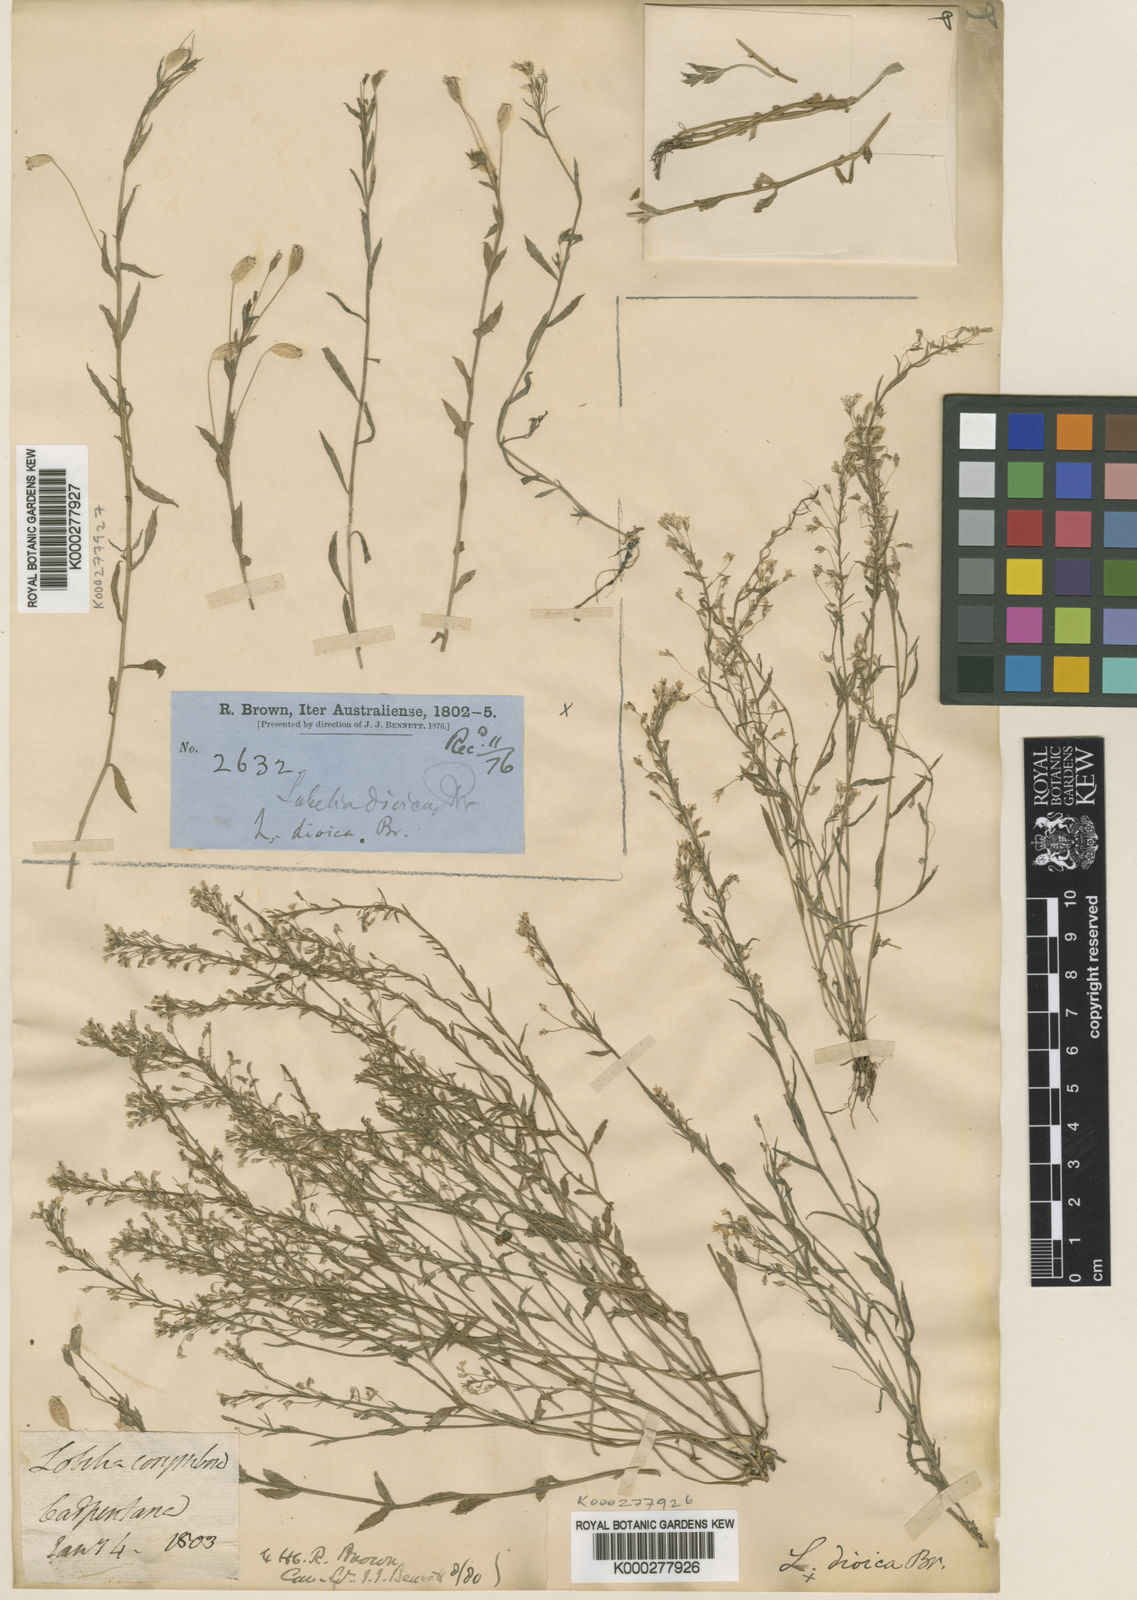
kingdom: Plantae
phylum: Tracheophyta
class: Magnoliopsida
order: Asterales
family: Campanulaceae
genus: Lobelia
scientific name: Lobelia dioica
